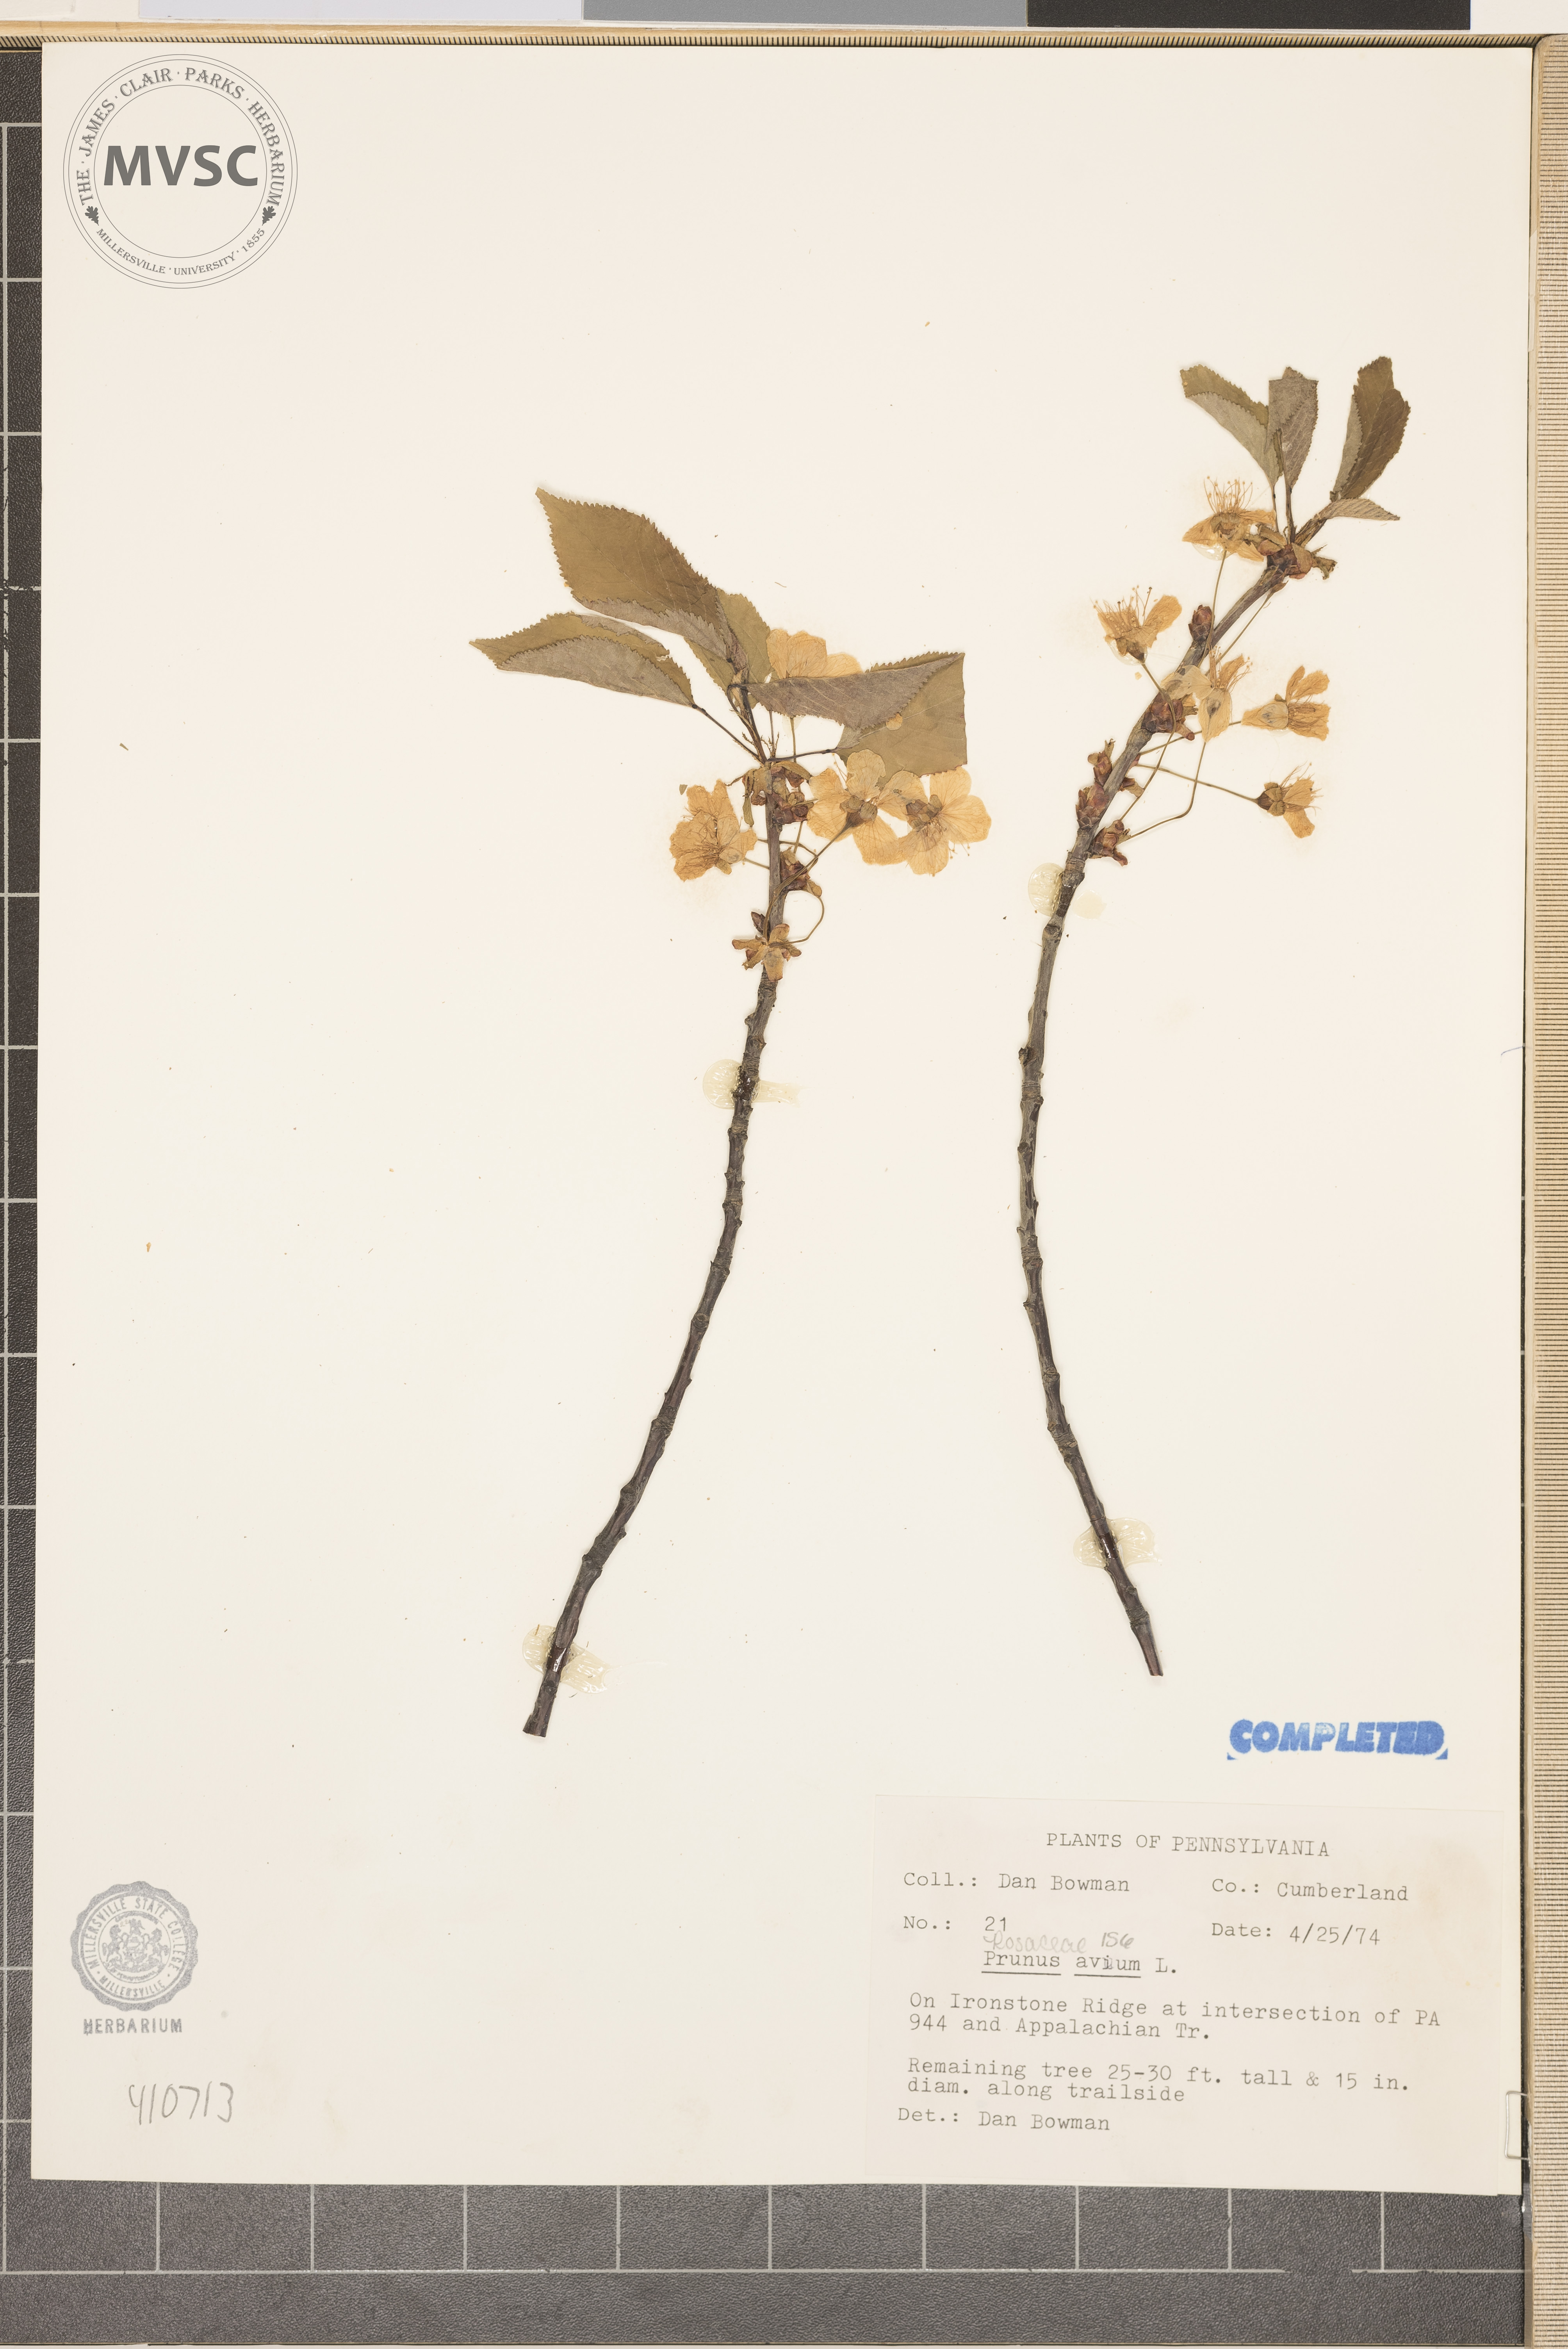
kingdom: Plantae
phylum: Tracheophyta
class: Magnoliopsida
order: Rosales
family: Rosaceae
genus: Prunus
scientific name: Prunus avium
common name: Sweet cherry
